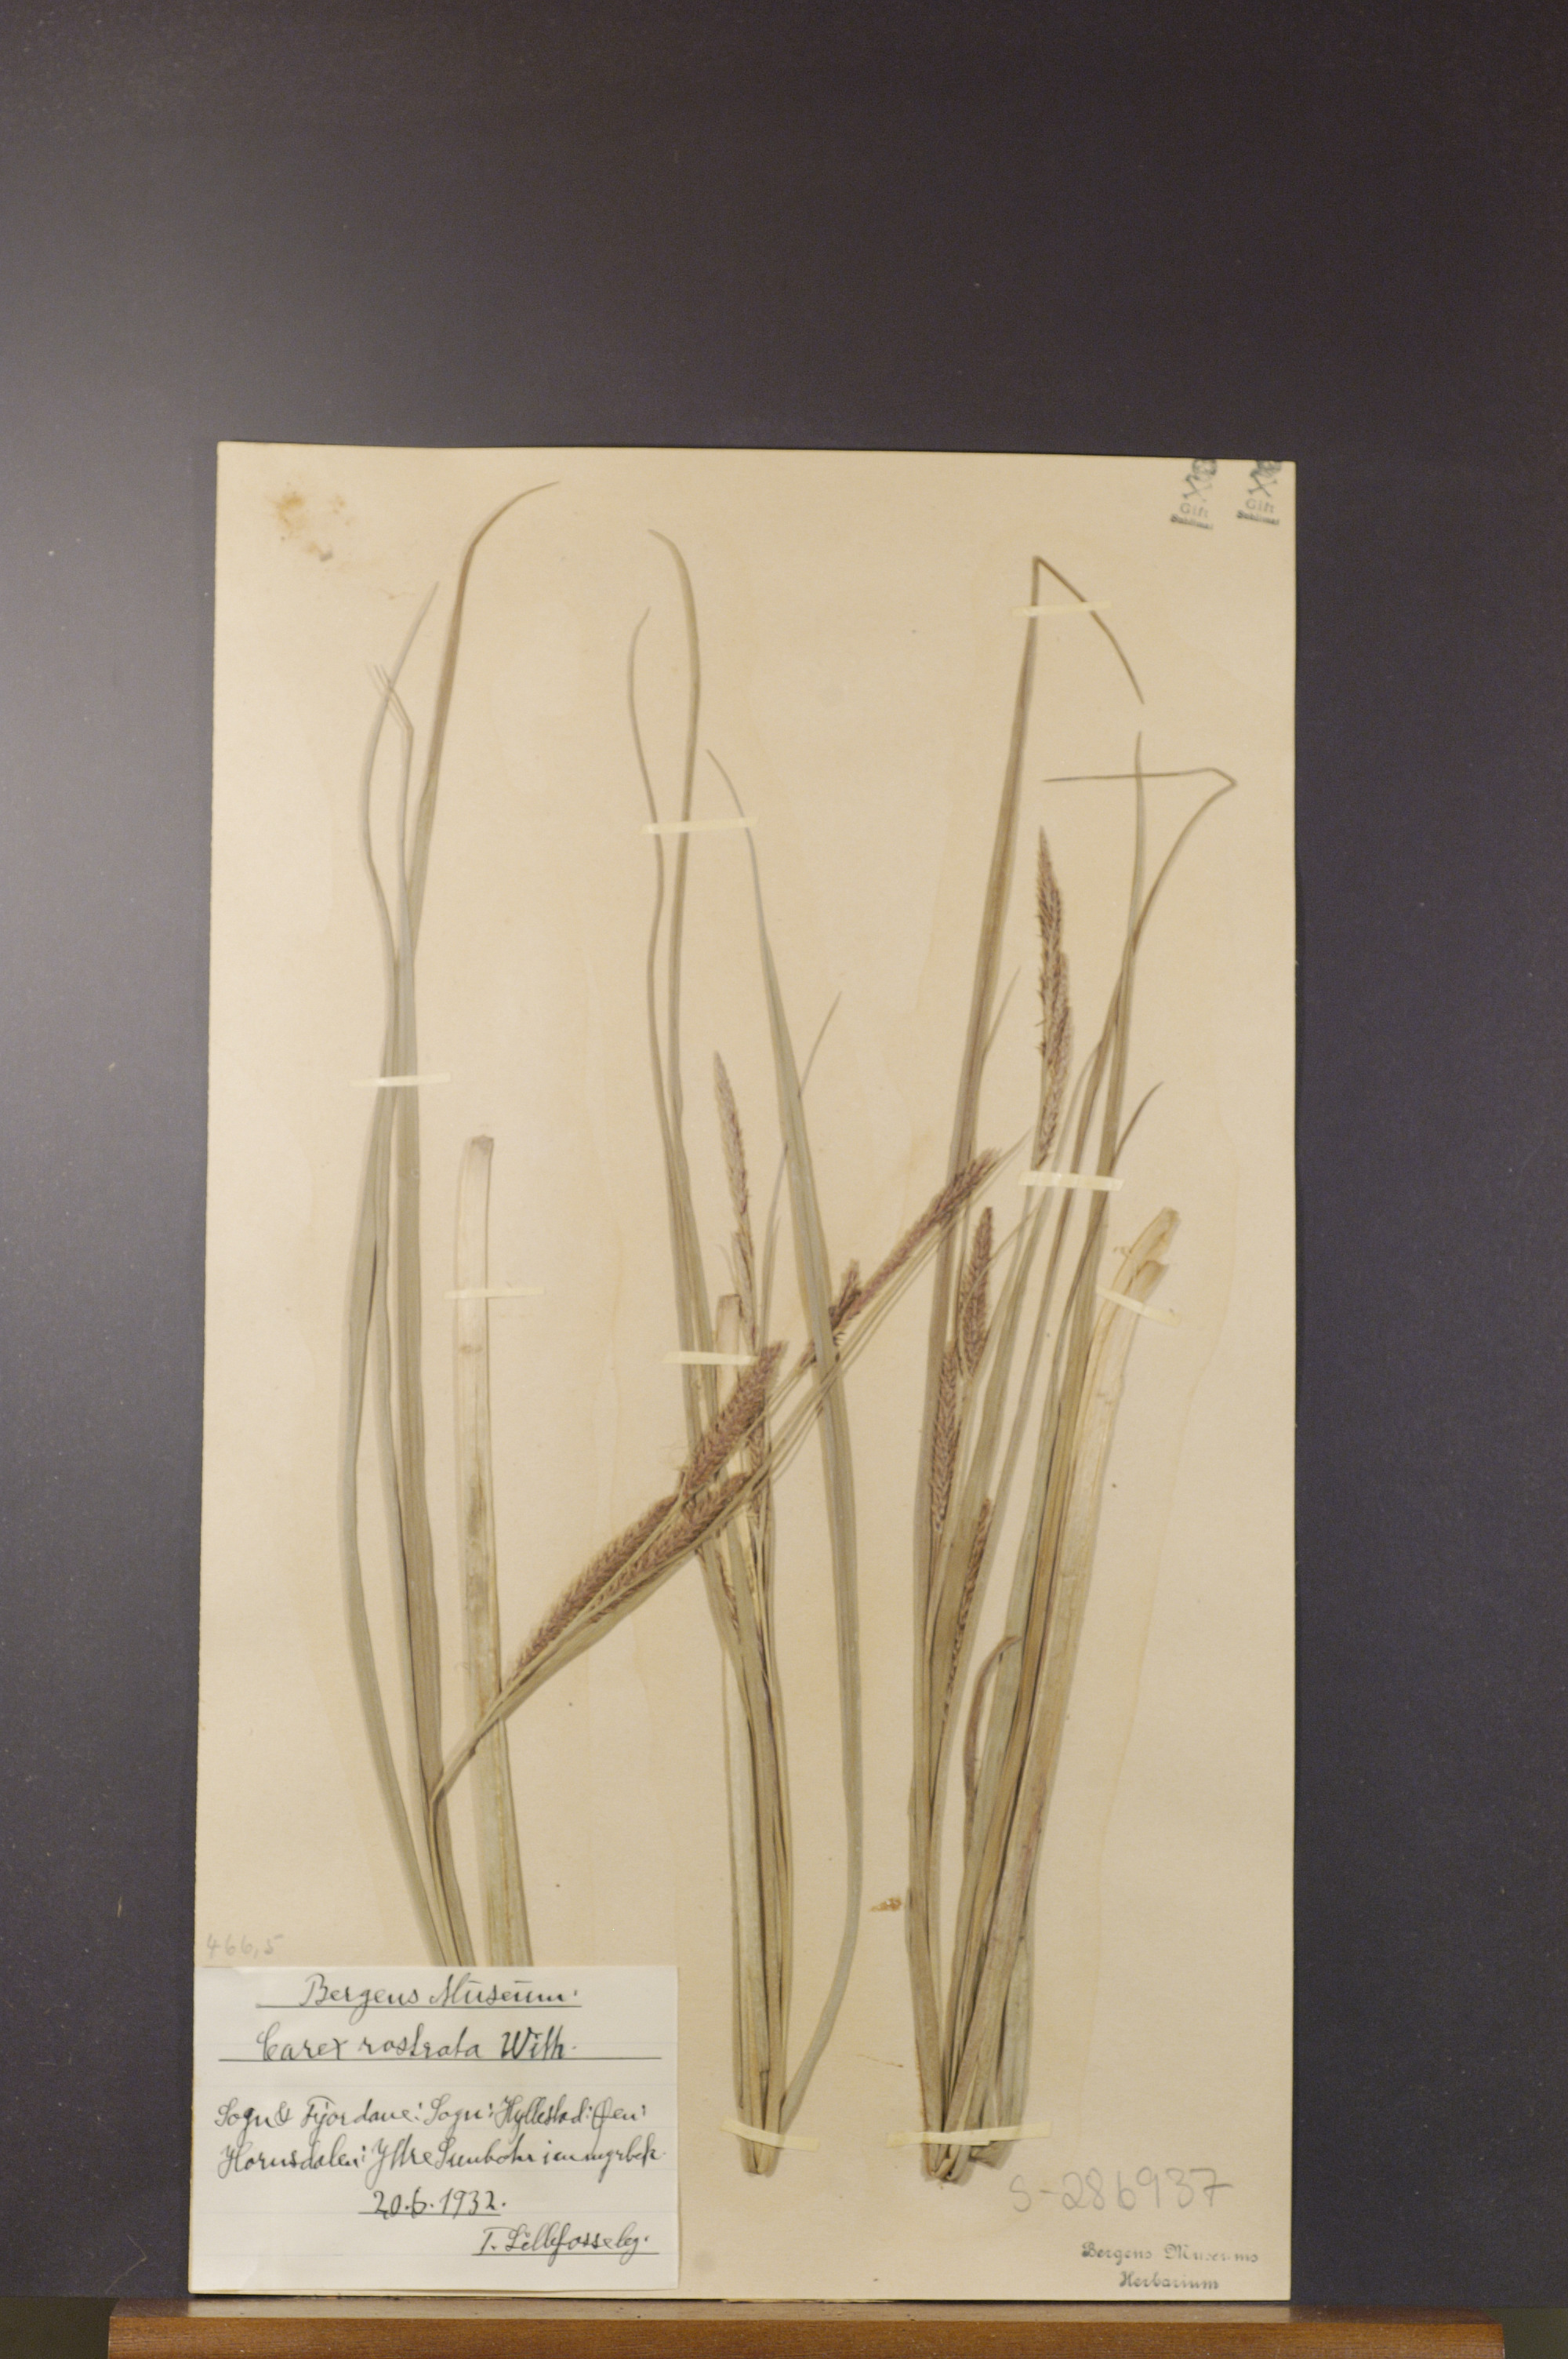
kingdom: Plantae
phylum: Tracheophyta
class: Liliopsida
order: Poales
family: Cyperaceae
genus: Carex
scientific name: Carex rostrata
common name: Bottle sedge
